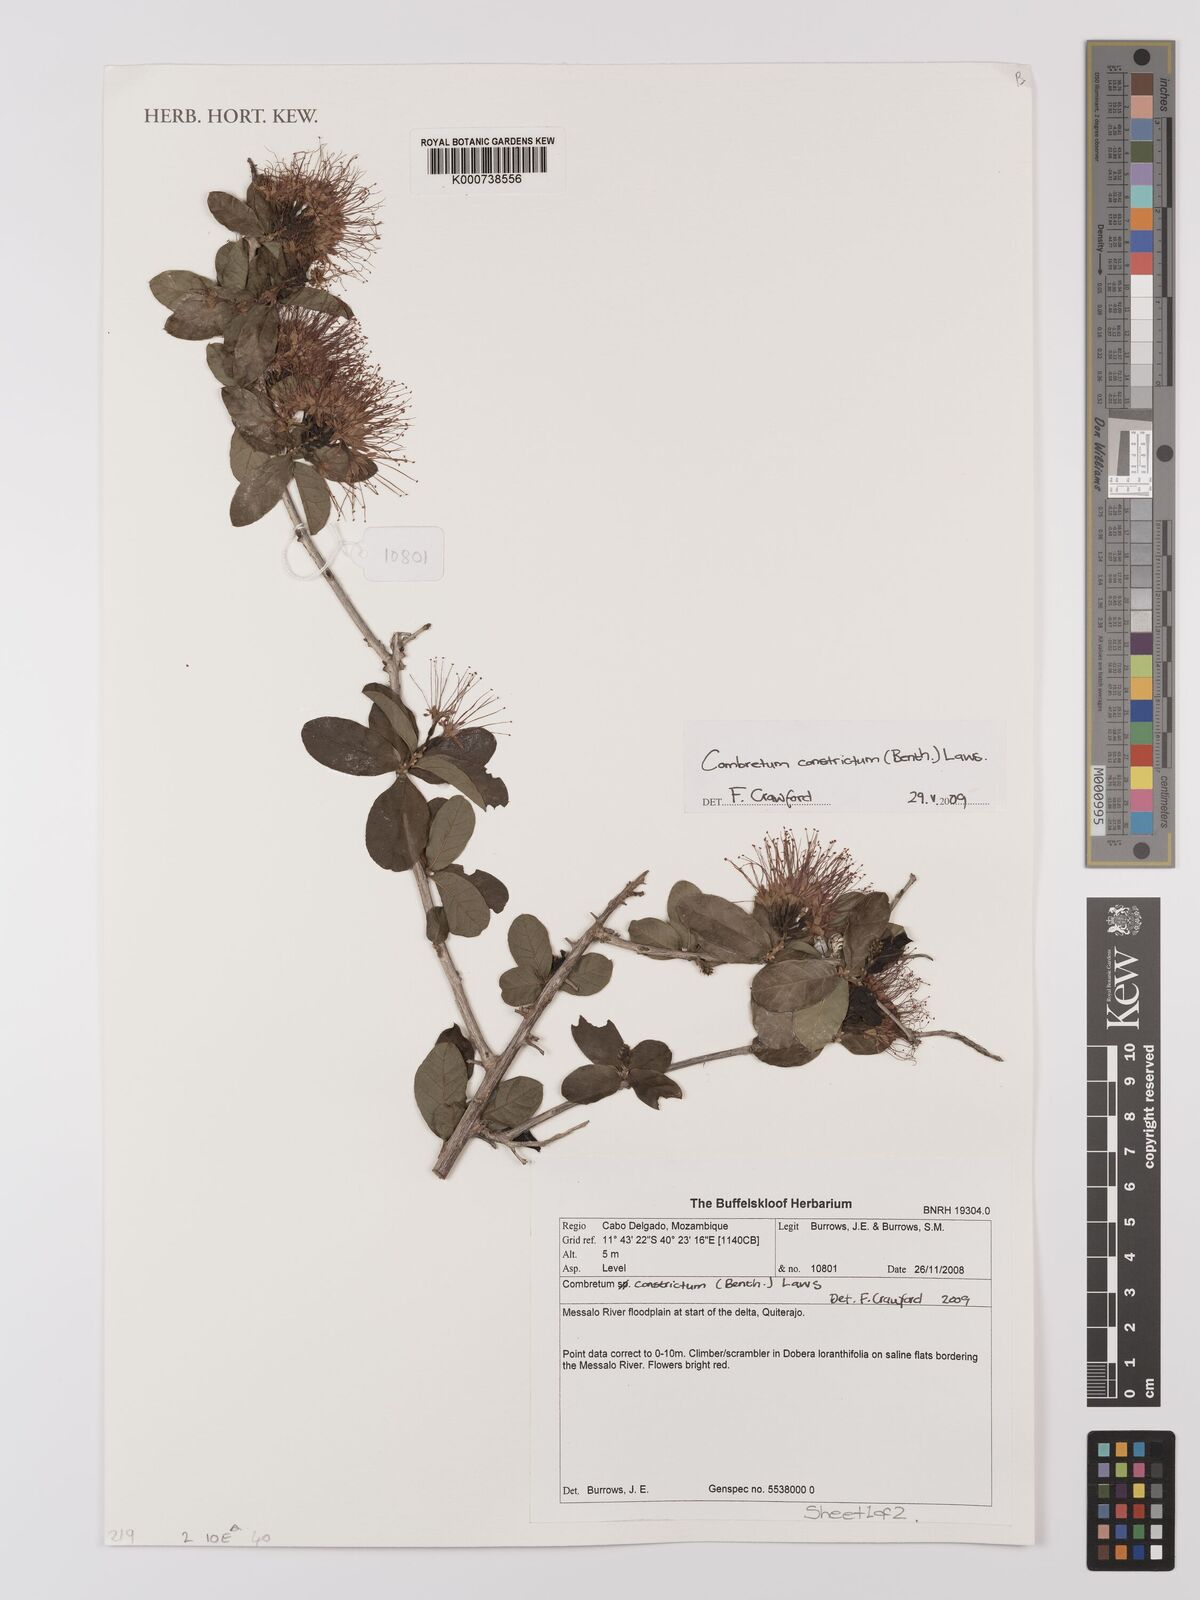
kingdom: Plantae
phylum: Tracheophyta
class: Magnoliopsida
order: Myrtales
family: Combretaceae
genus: Combretum
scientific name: Combretum constrictum
